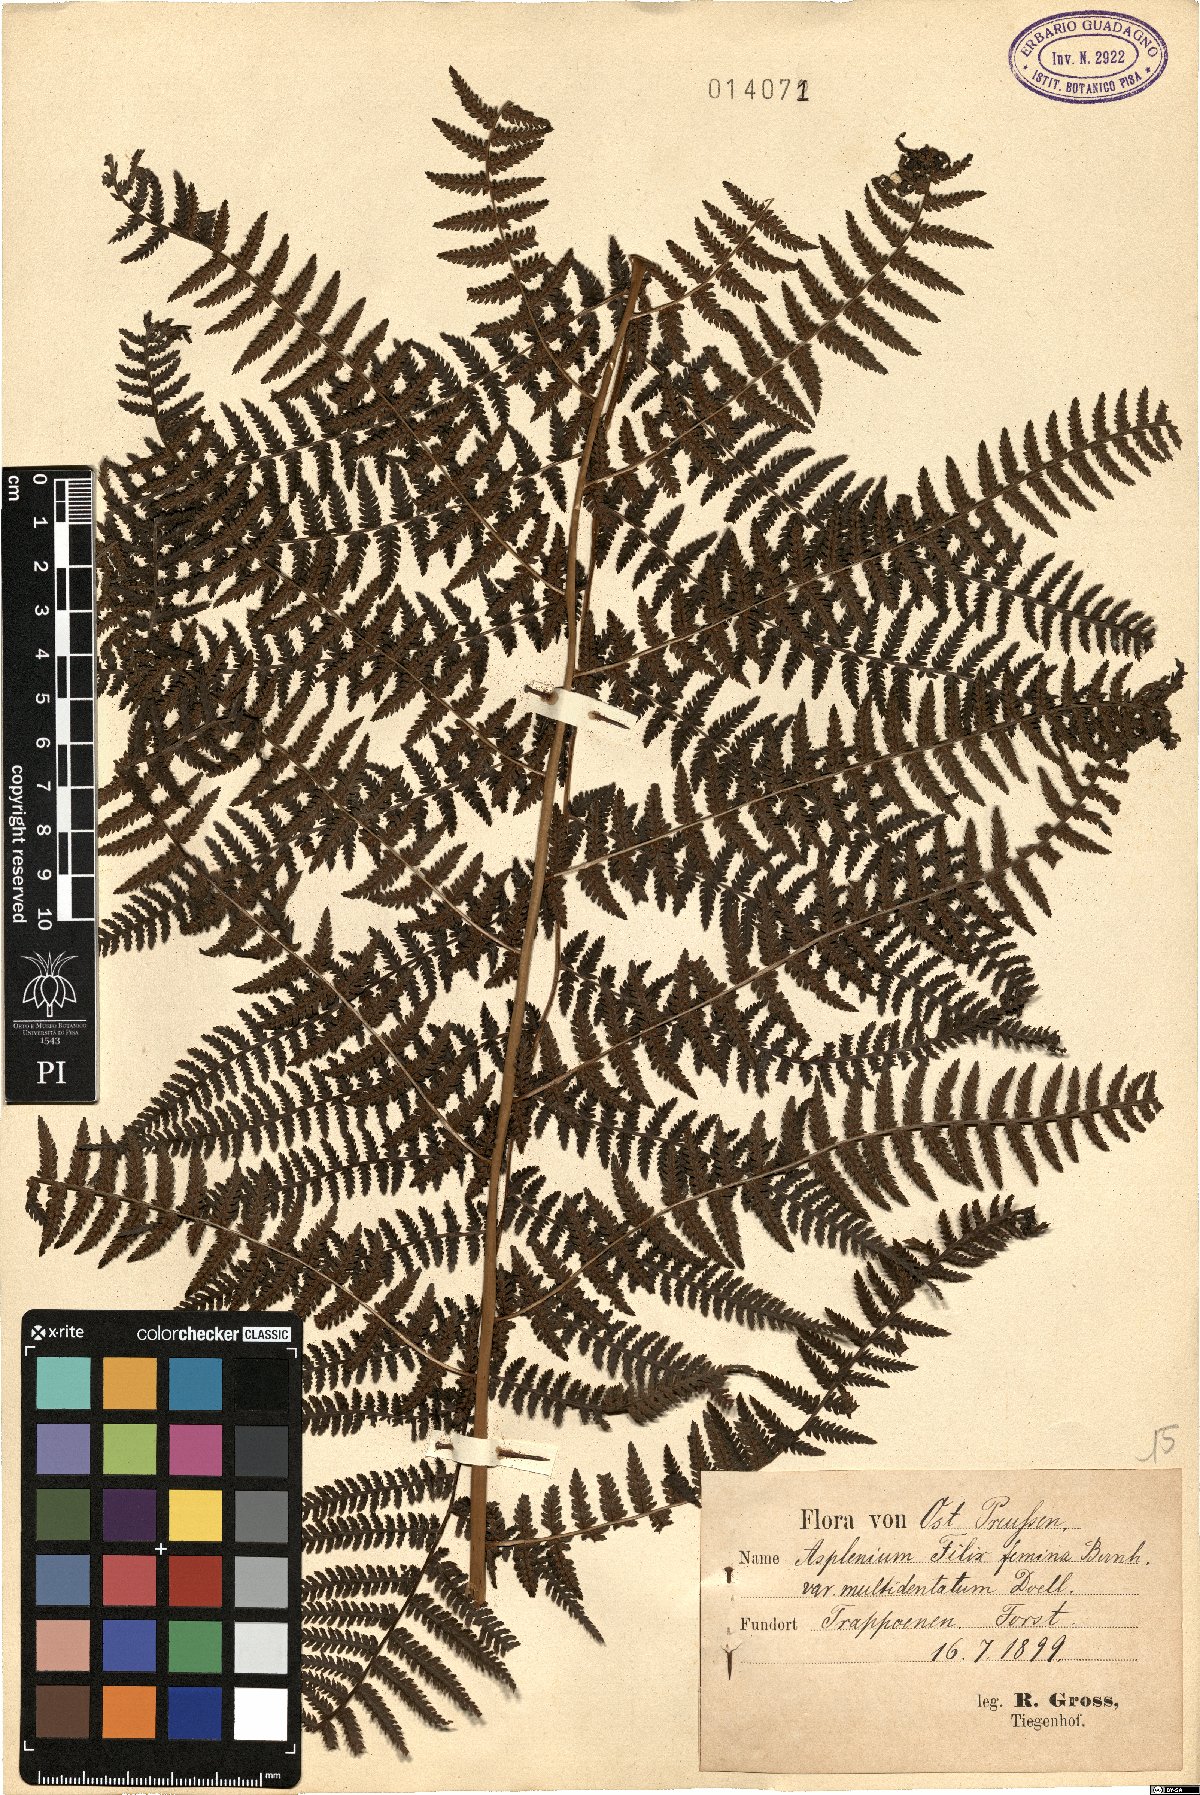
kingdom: Plantae
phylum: Tracheophyta
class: Polypodiopsida
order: Polypodiales
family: Athyriaceae
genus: Athyrium
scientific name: Athyrium filix-femina
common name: Lady fern
